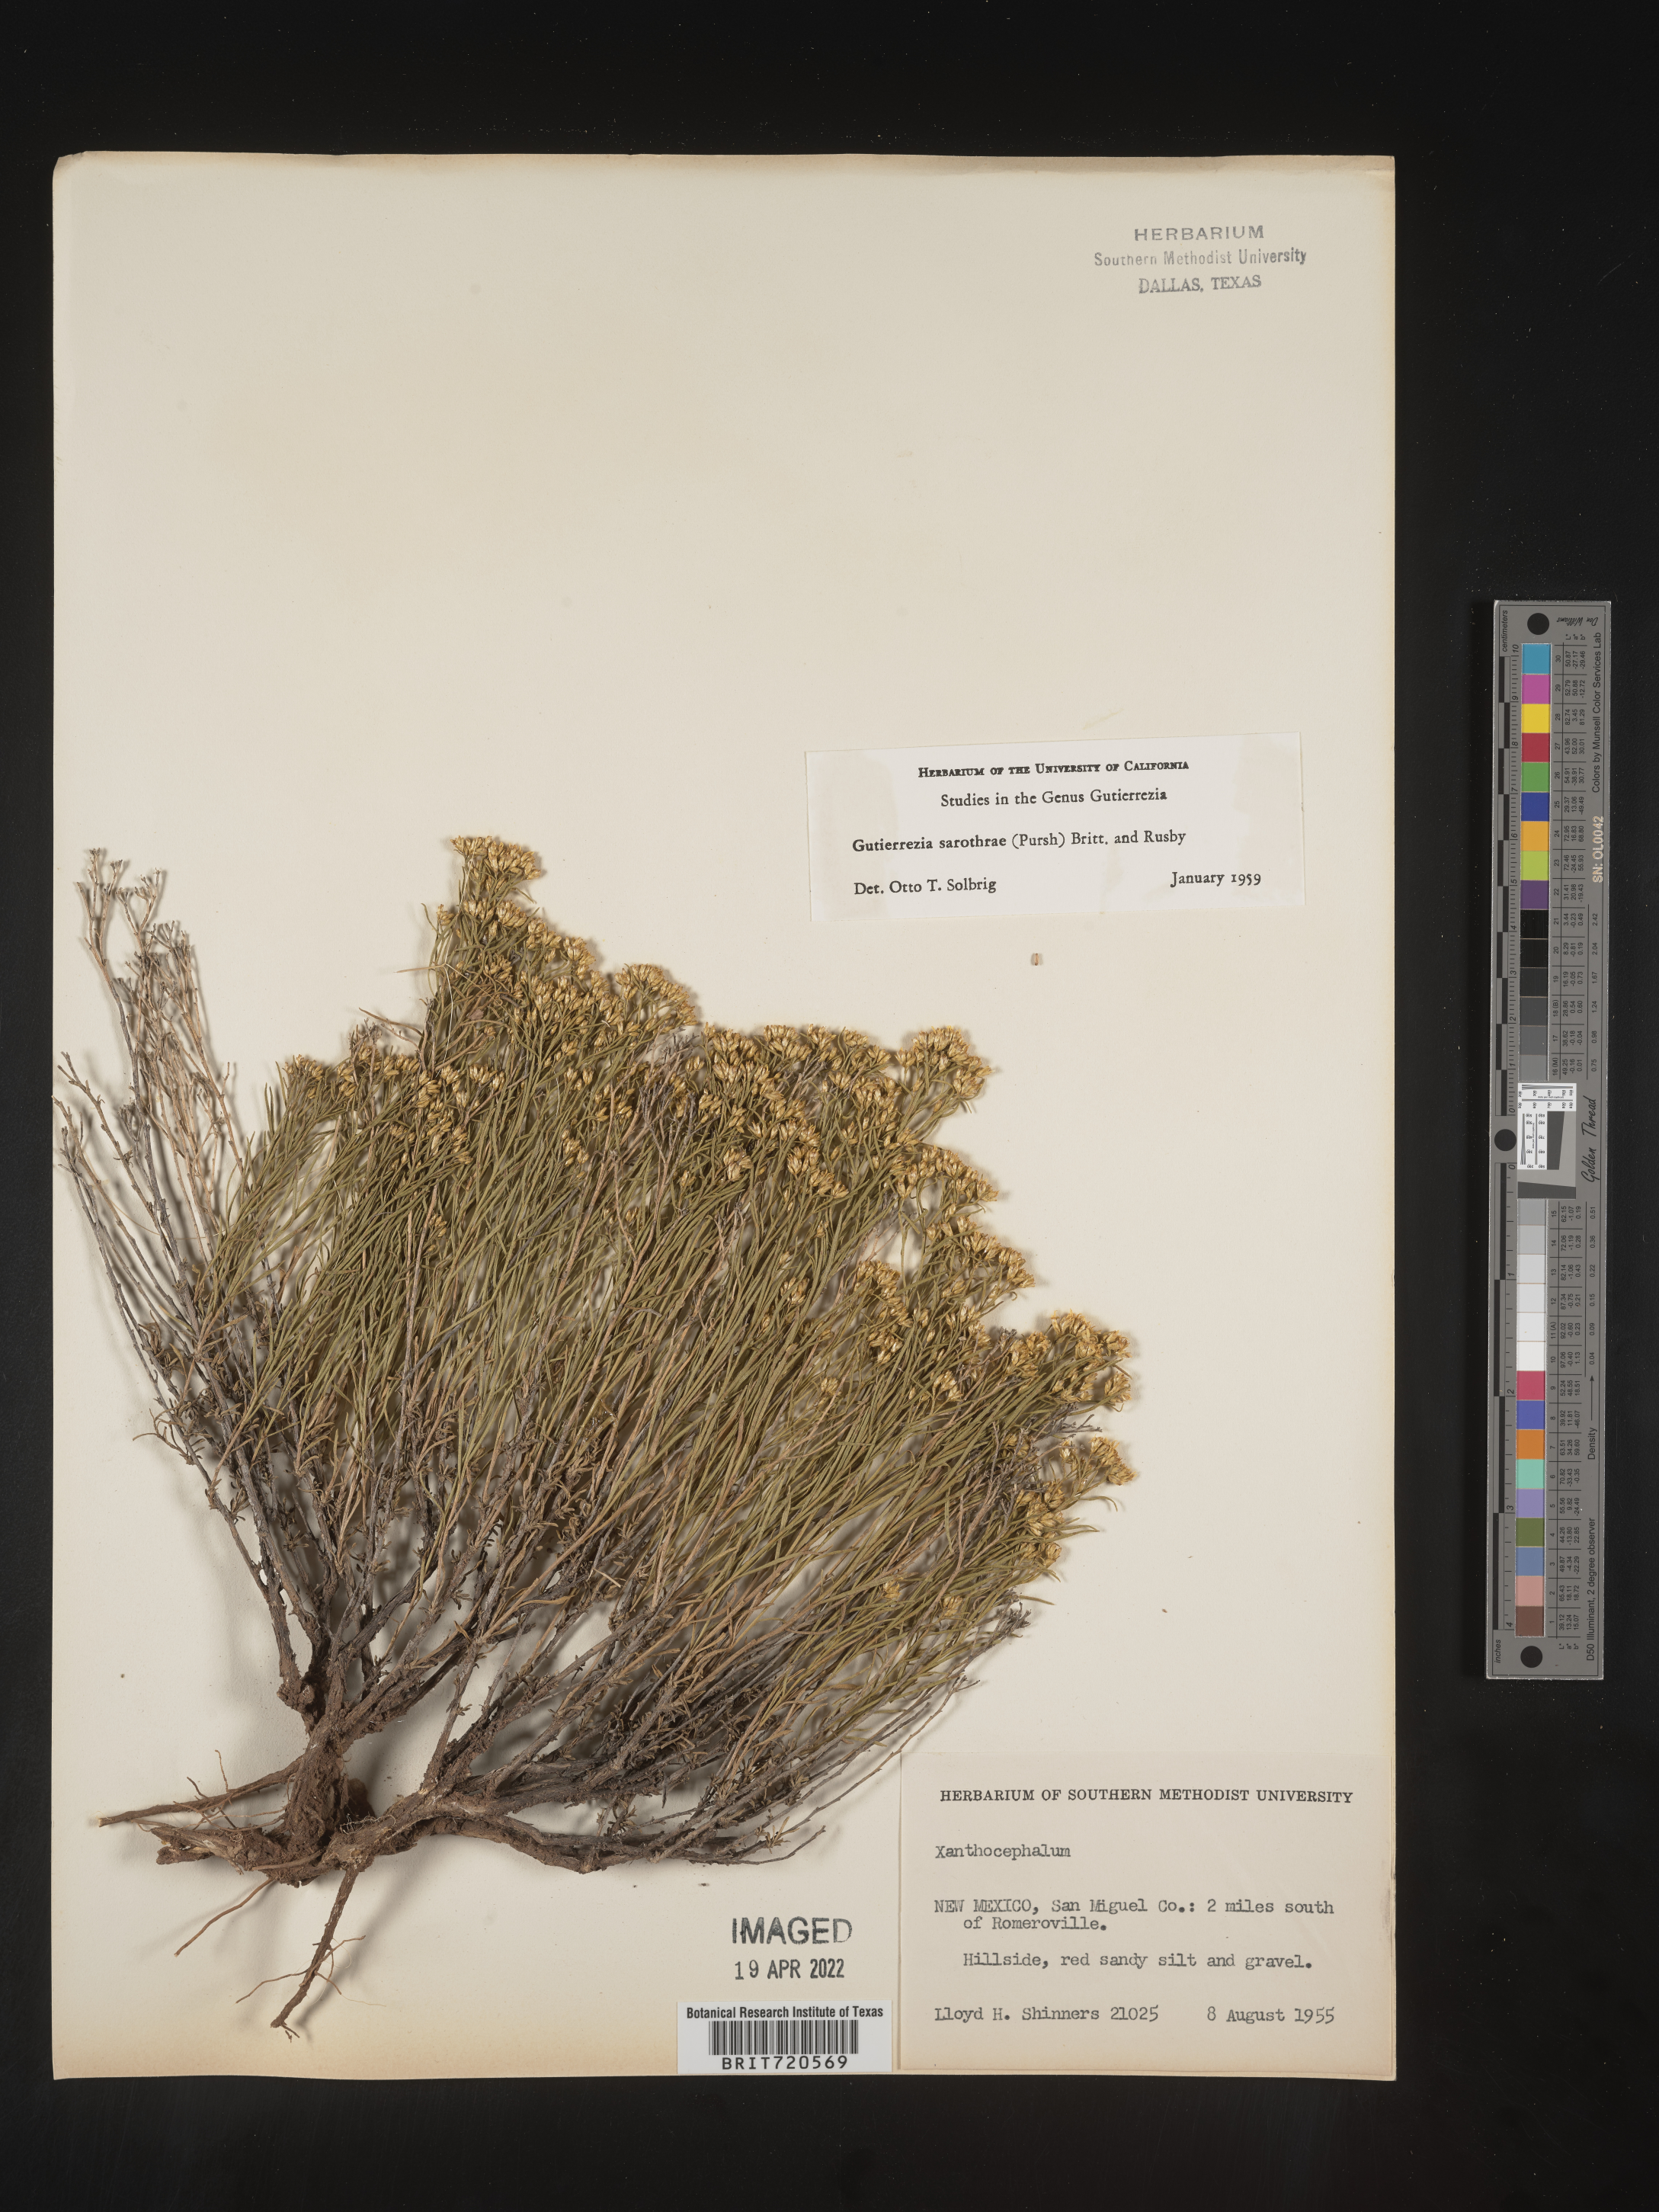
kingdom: Plantae
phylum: Tracheophyta
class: Magnoliopsida
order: Asterales
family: Asteraceae
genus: Gutierrezia
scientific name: Gutierrezia sarothrae
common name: Broom snakeweed
